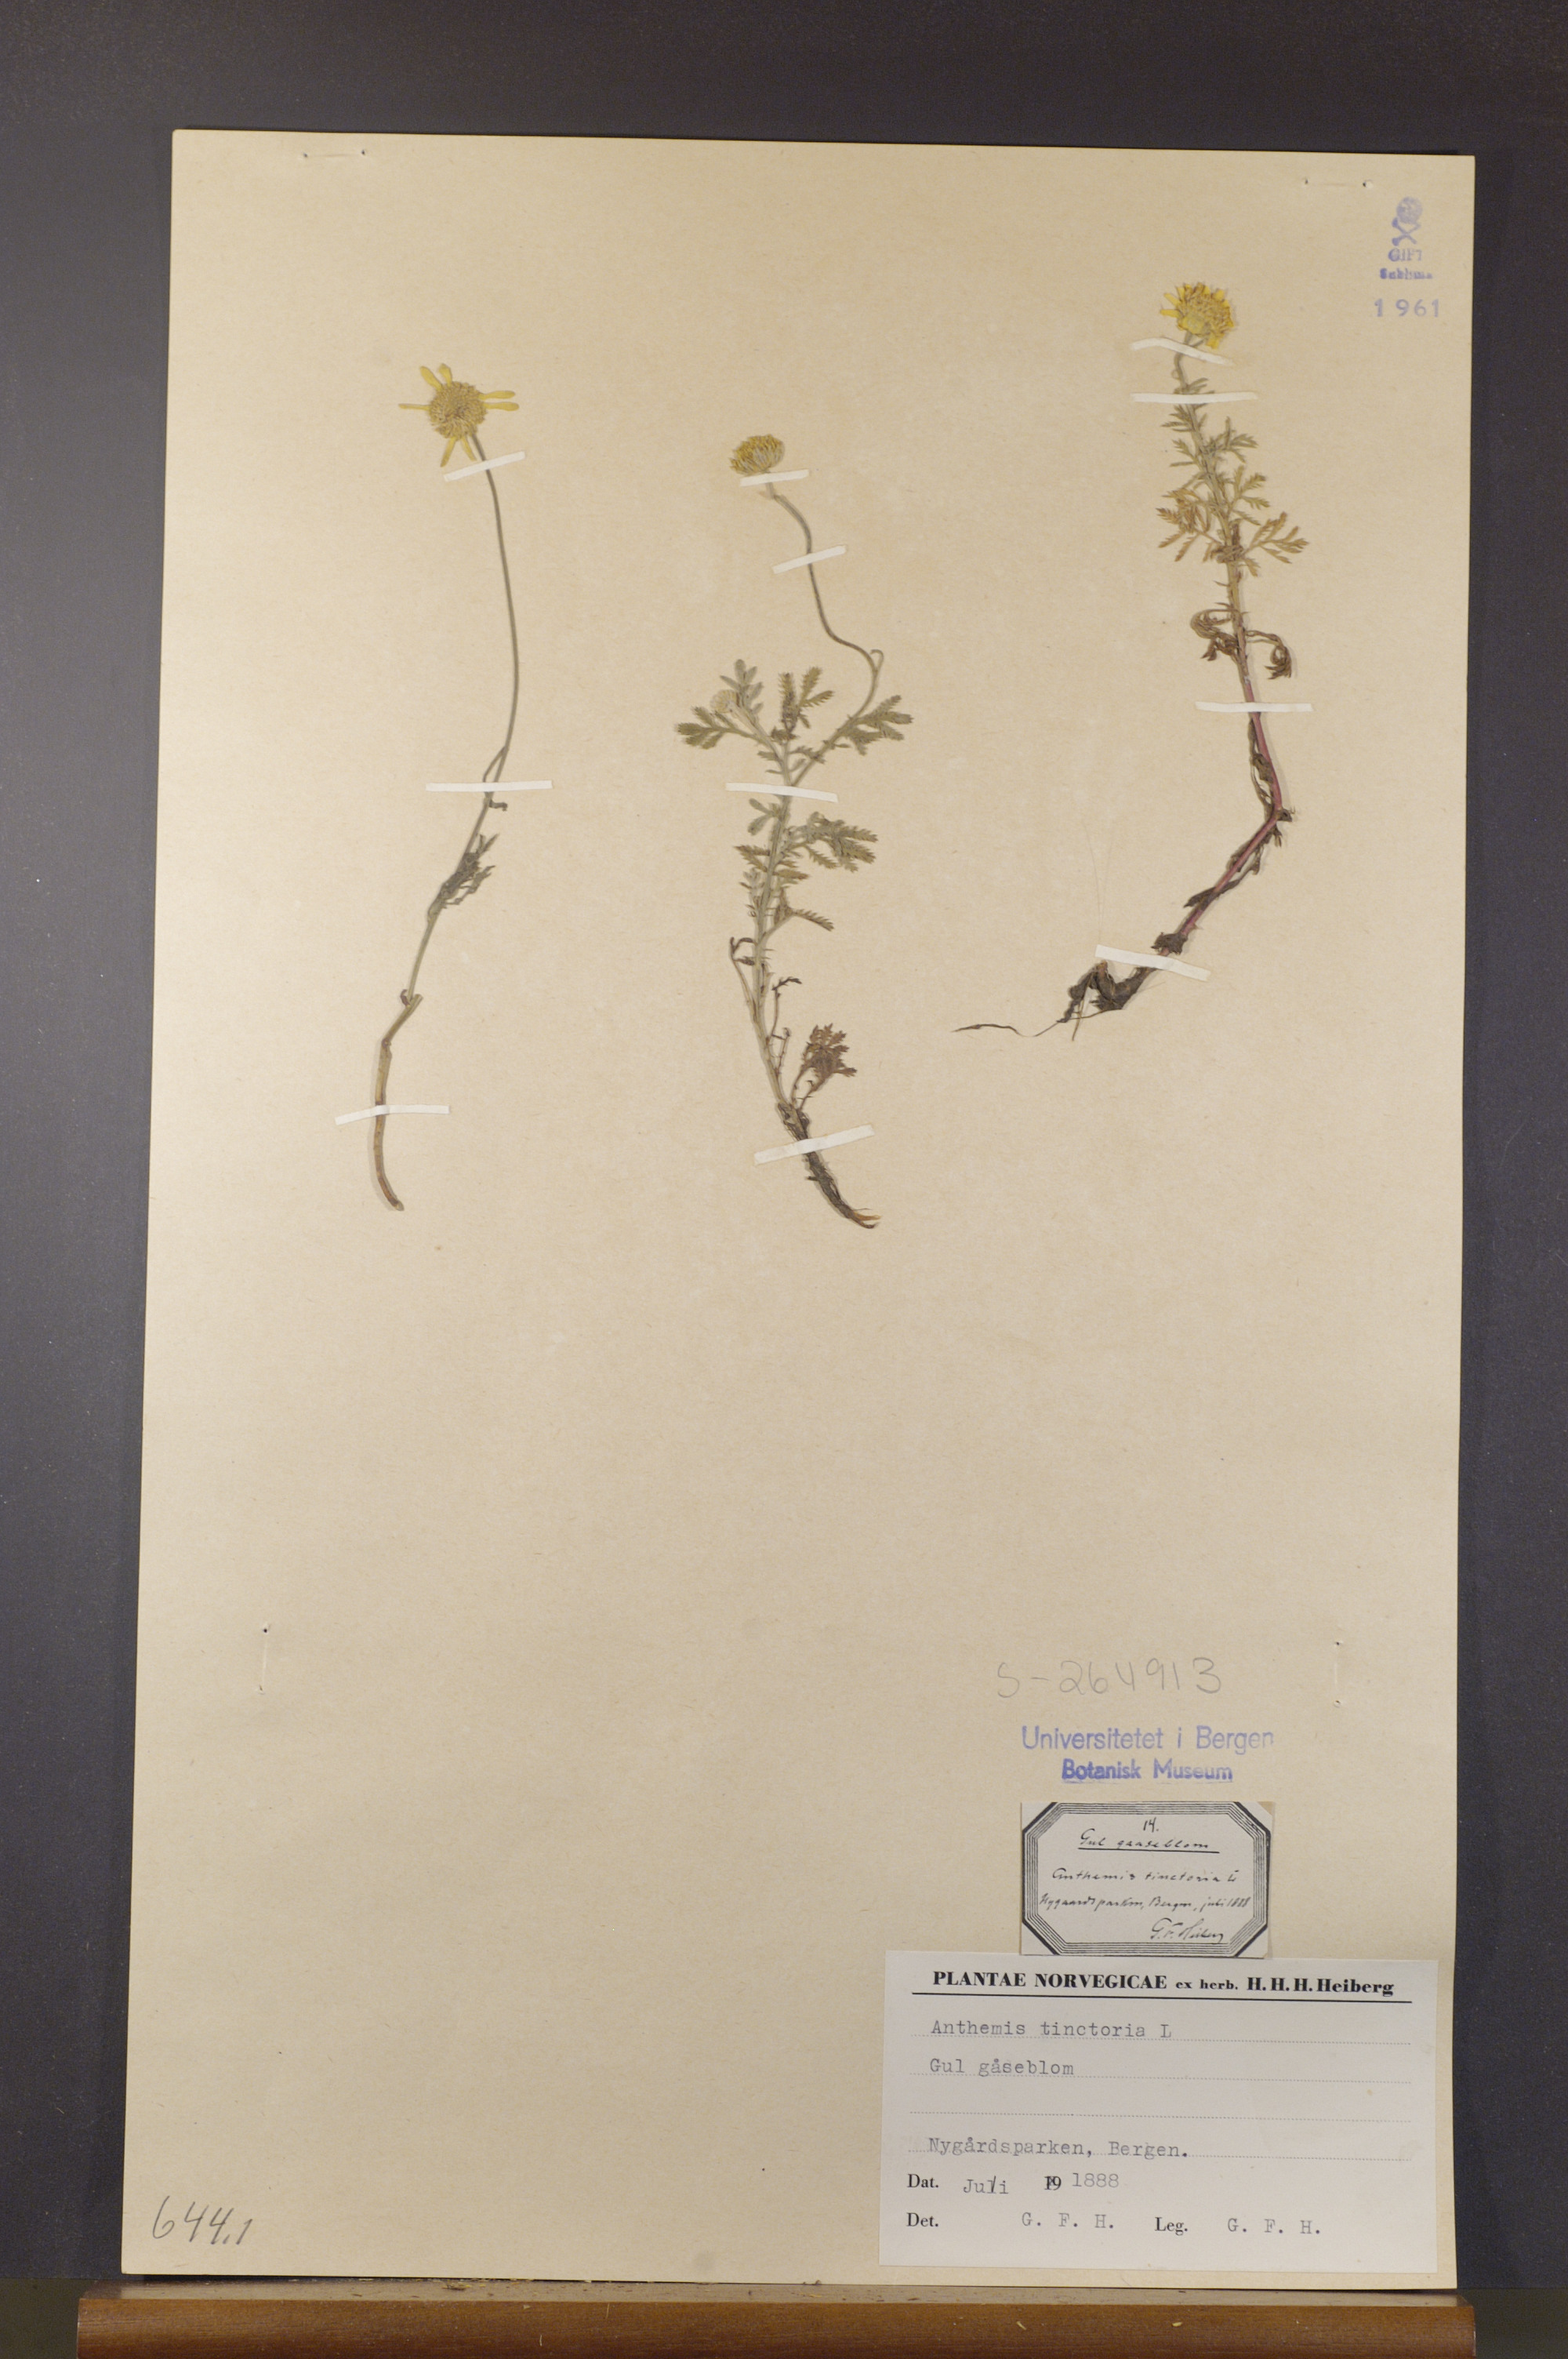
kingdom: Plantae
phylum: Tracheophyta
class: Magnoliopsida
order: Asterales
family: Asteraceae
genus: Cota
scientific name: Cota tinctoria
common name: Golden chamomile
